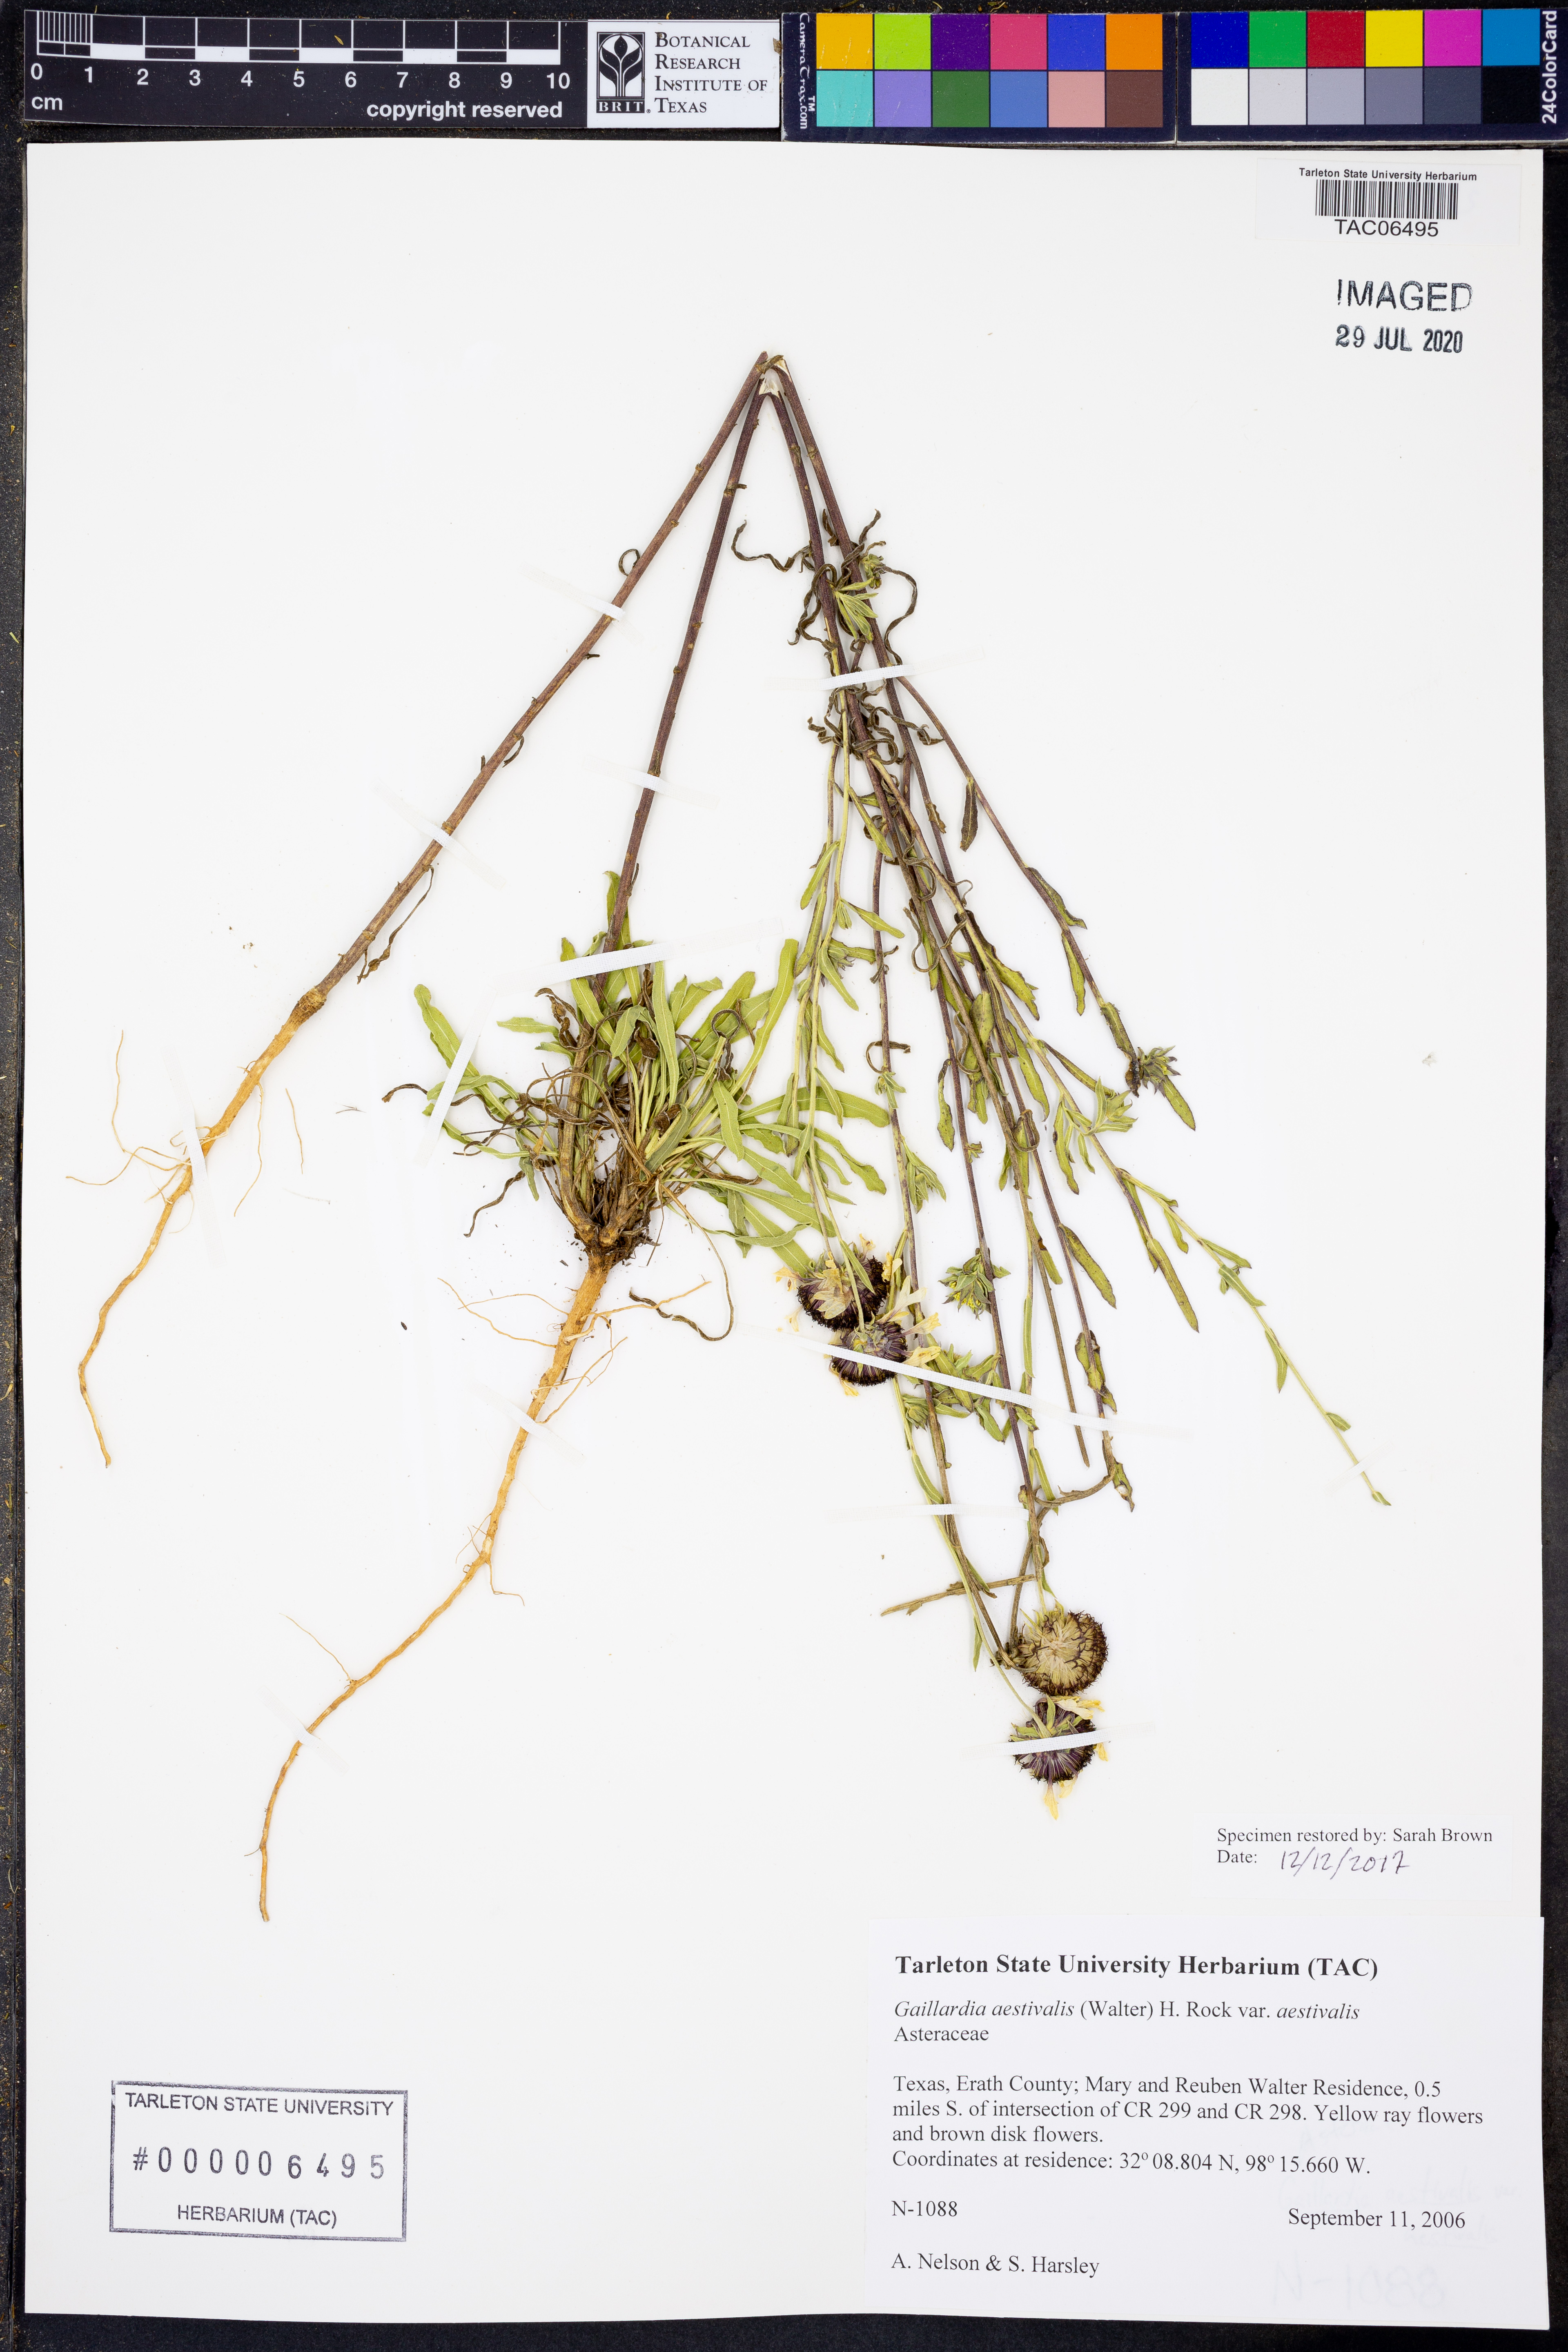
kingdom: Plantae
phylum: Tracheophyta
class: Magnoliopsida
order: Asterales
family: Asteraceae
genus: Gaillardia
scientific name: Gaillardia aestivalis
